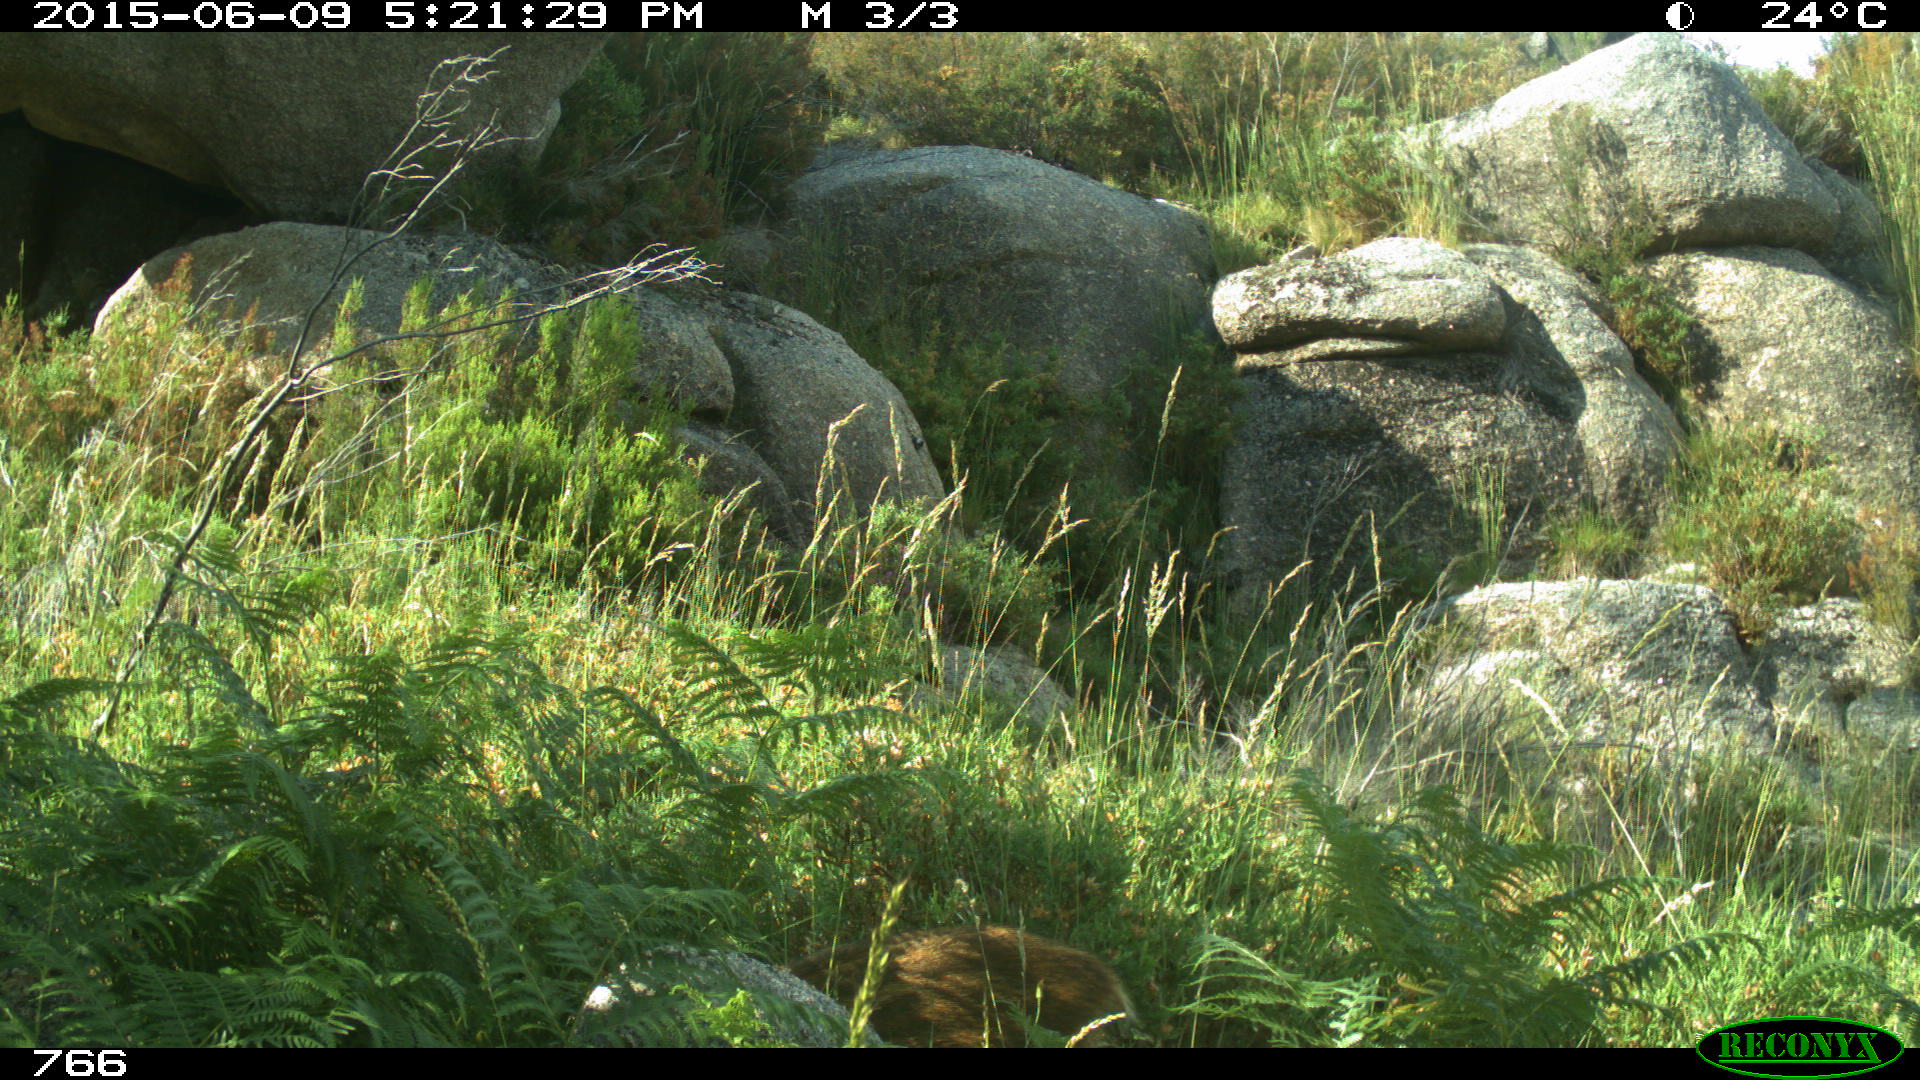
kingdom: Animalia
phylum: Chordata
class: Mammalia
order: Artiodactyla
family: Suidae
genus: Sus
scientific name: Sus scrofa
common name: Wild boar
